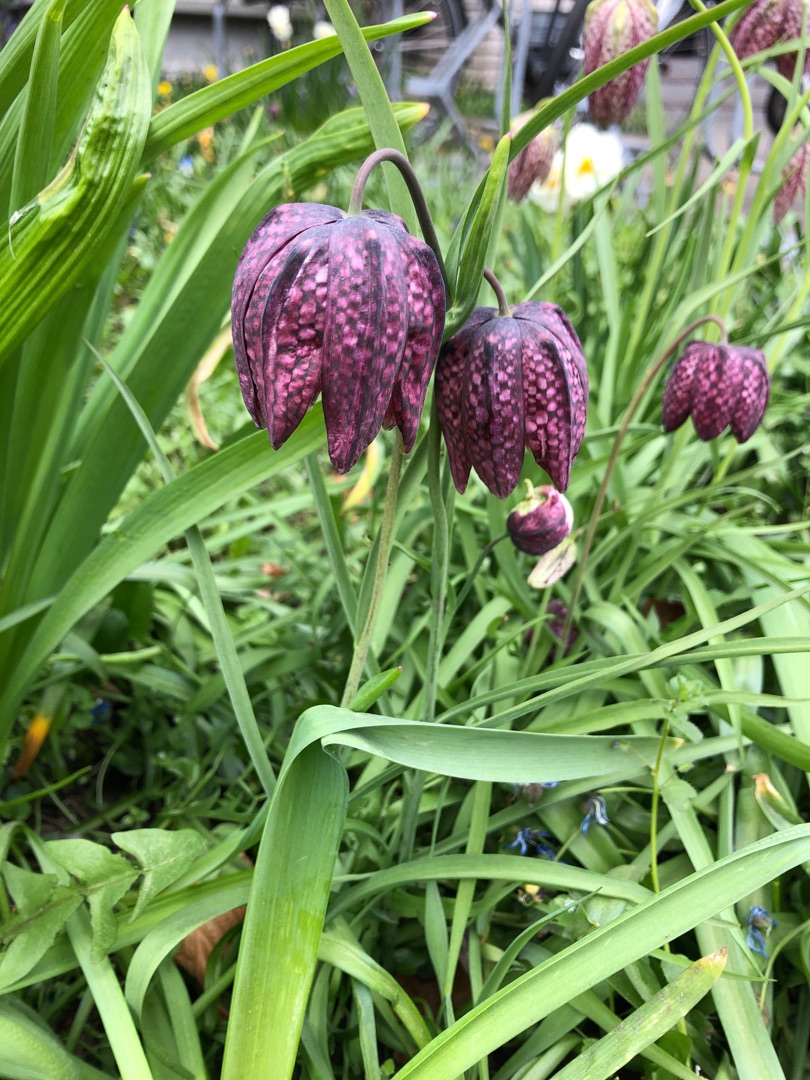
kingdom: Plantae
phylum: Tracheophyta
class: Liliopsida
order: Liliales
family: Liliaceae
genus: Fritillaria
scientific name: Fritillaria meleagris
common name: Vibeæg
